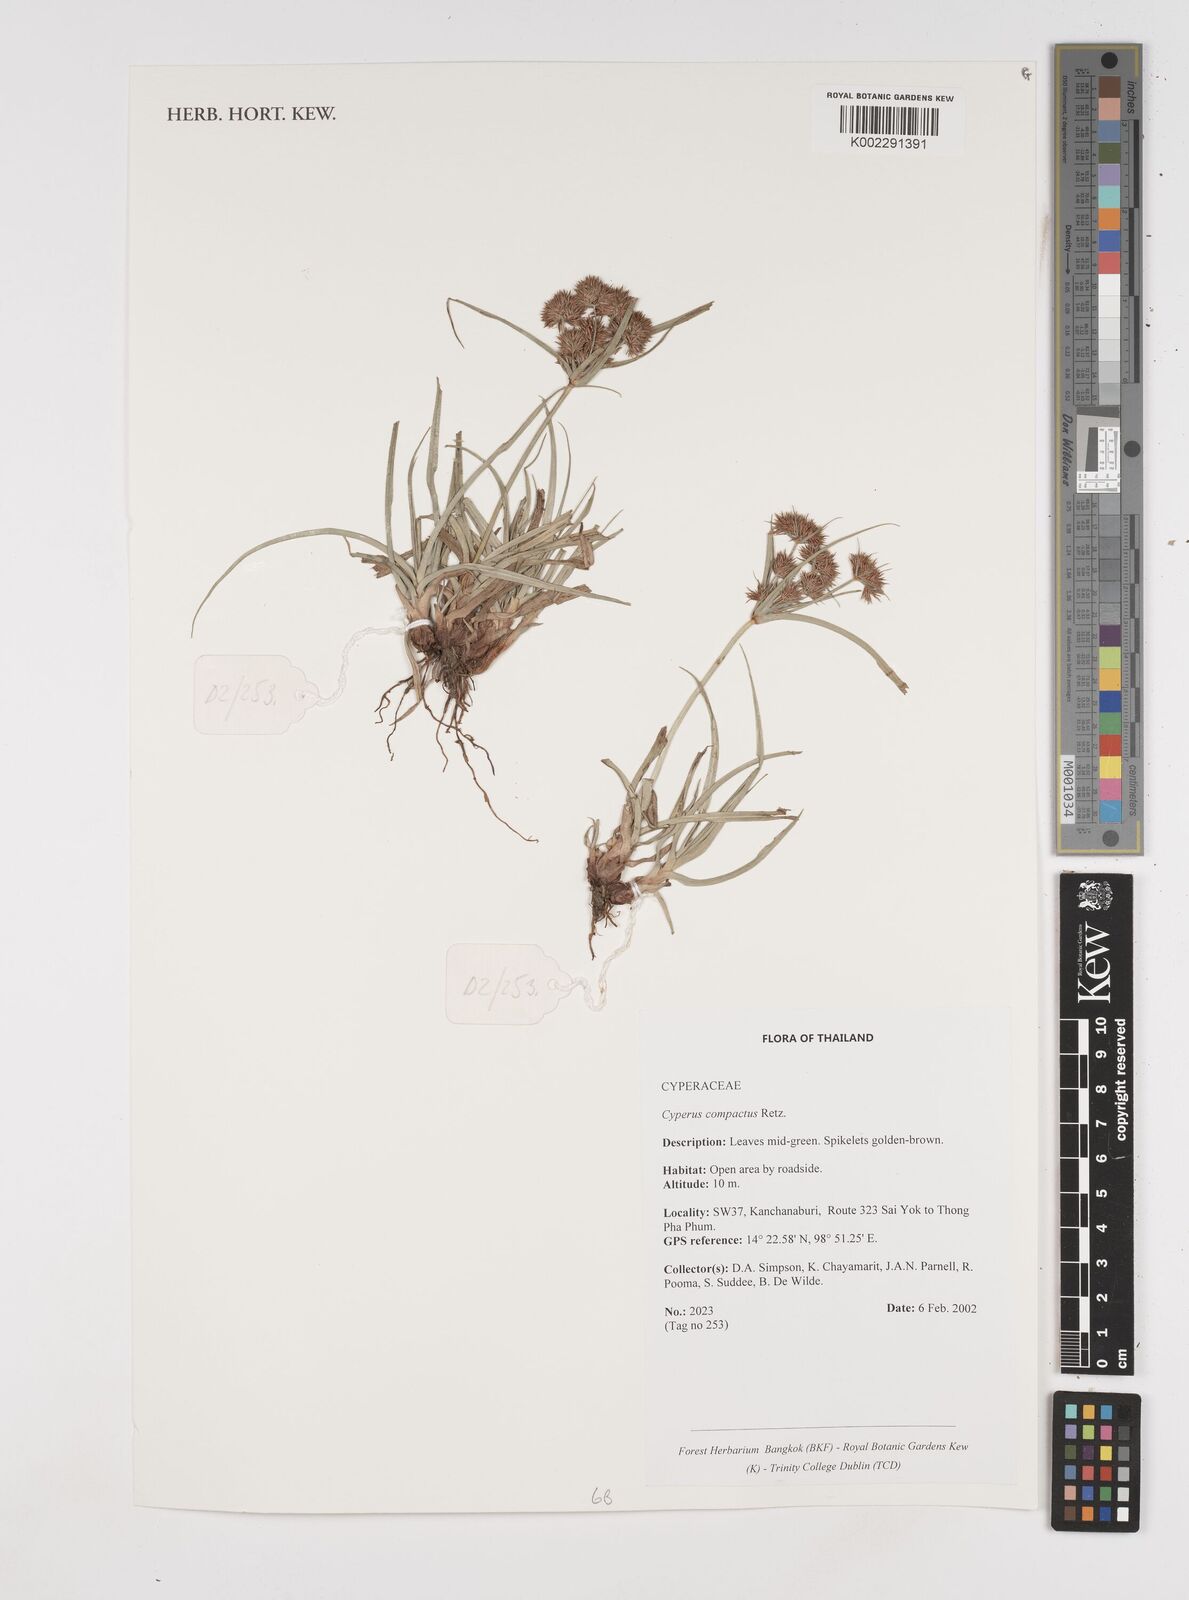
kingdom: Plantae
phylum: Tracheophyta
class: Liliopsida
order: Poales
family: Cyperaceae
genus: Cyperus
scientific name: Cyperus compactus
